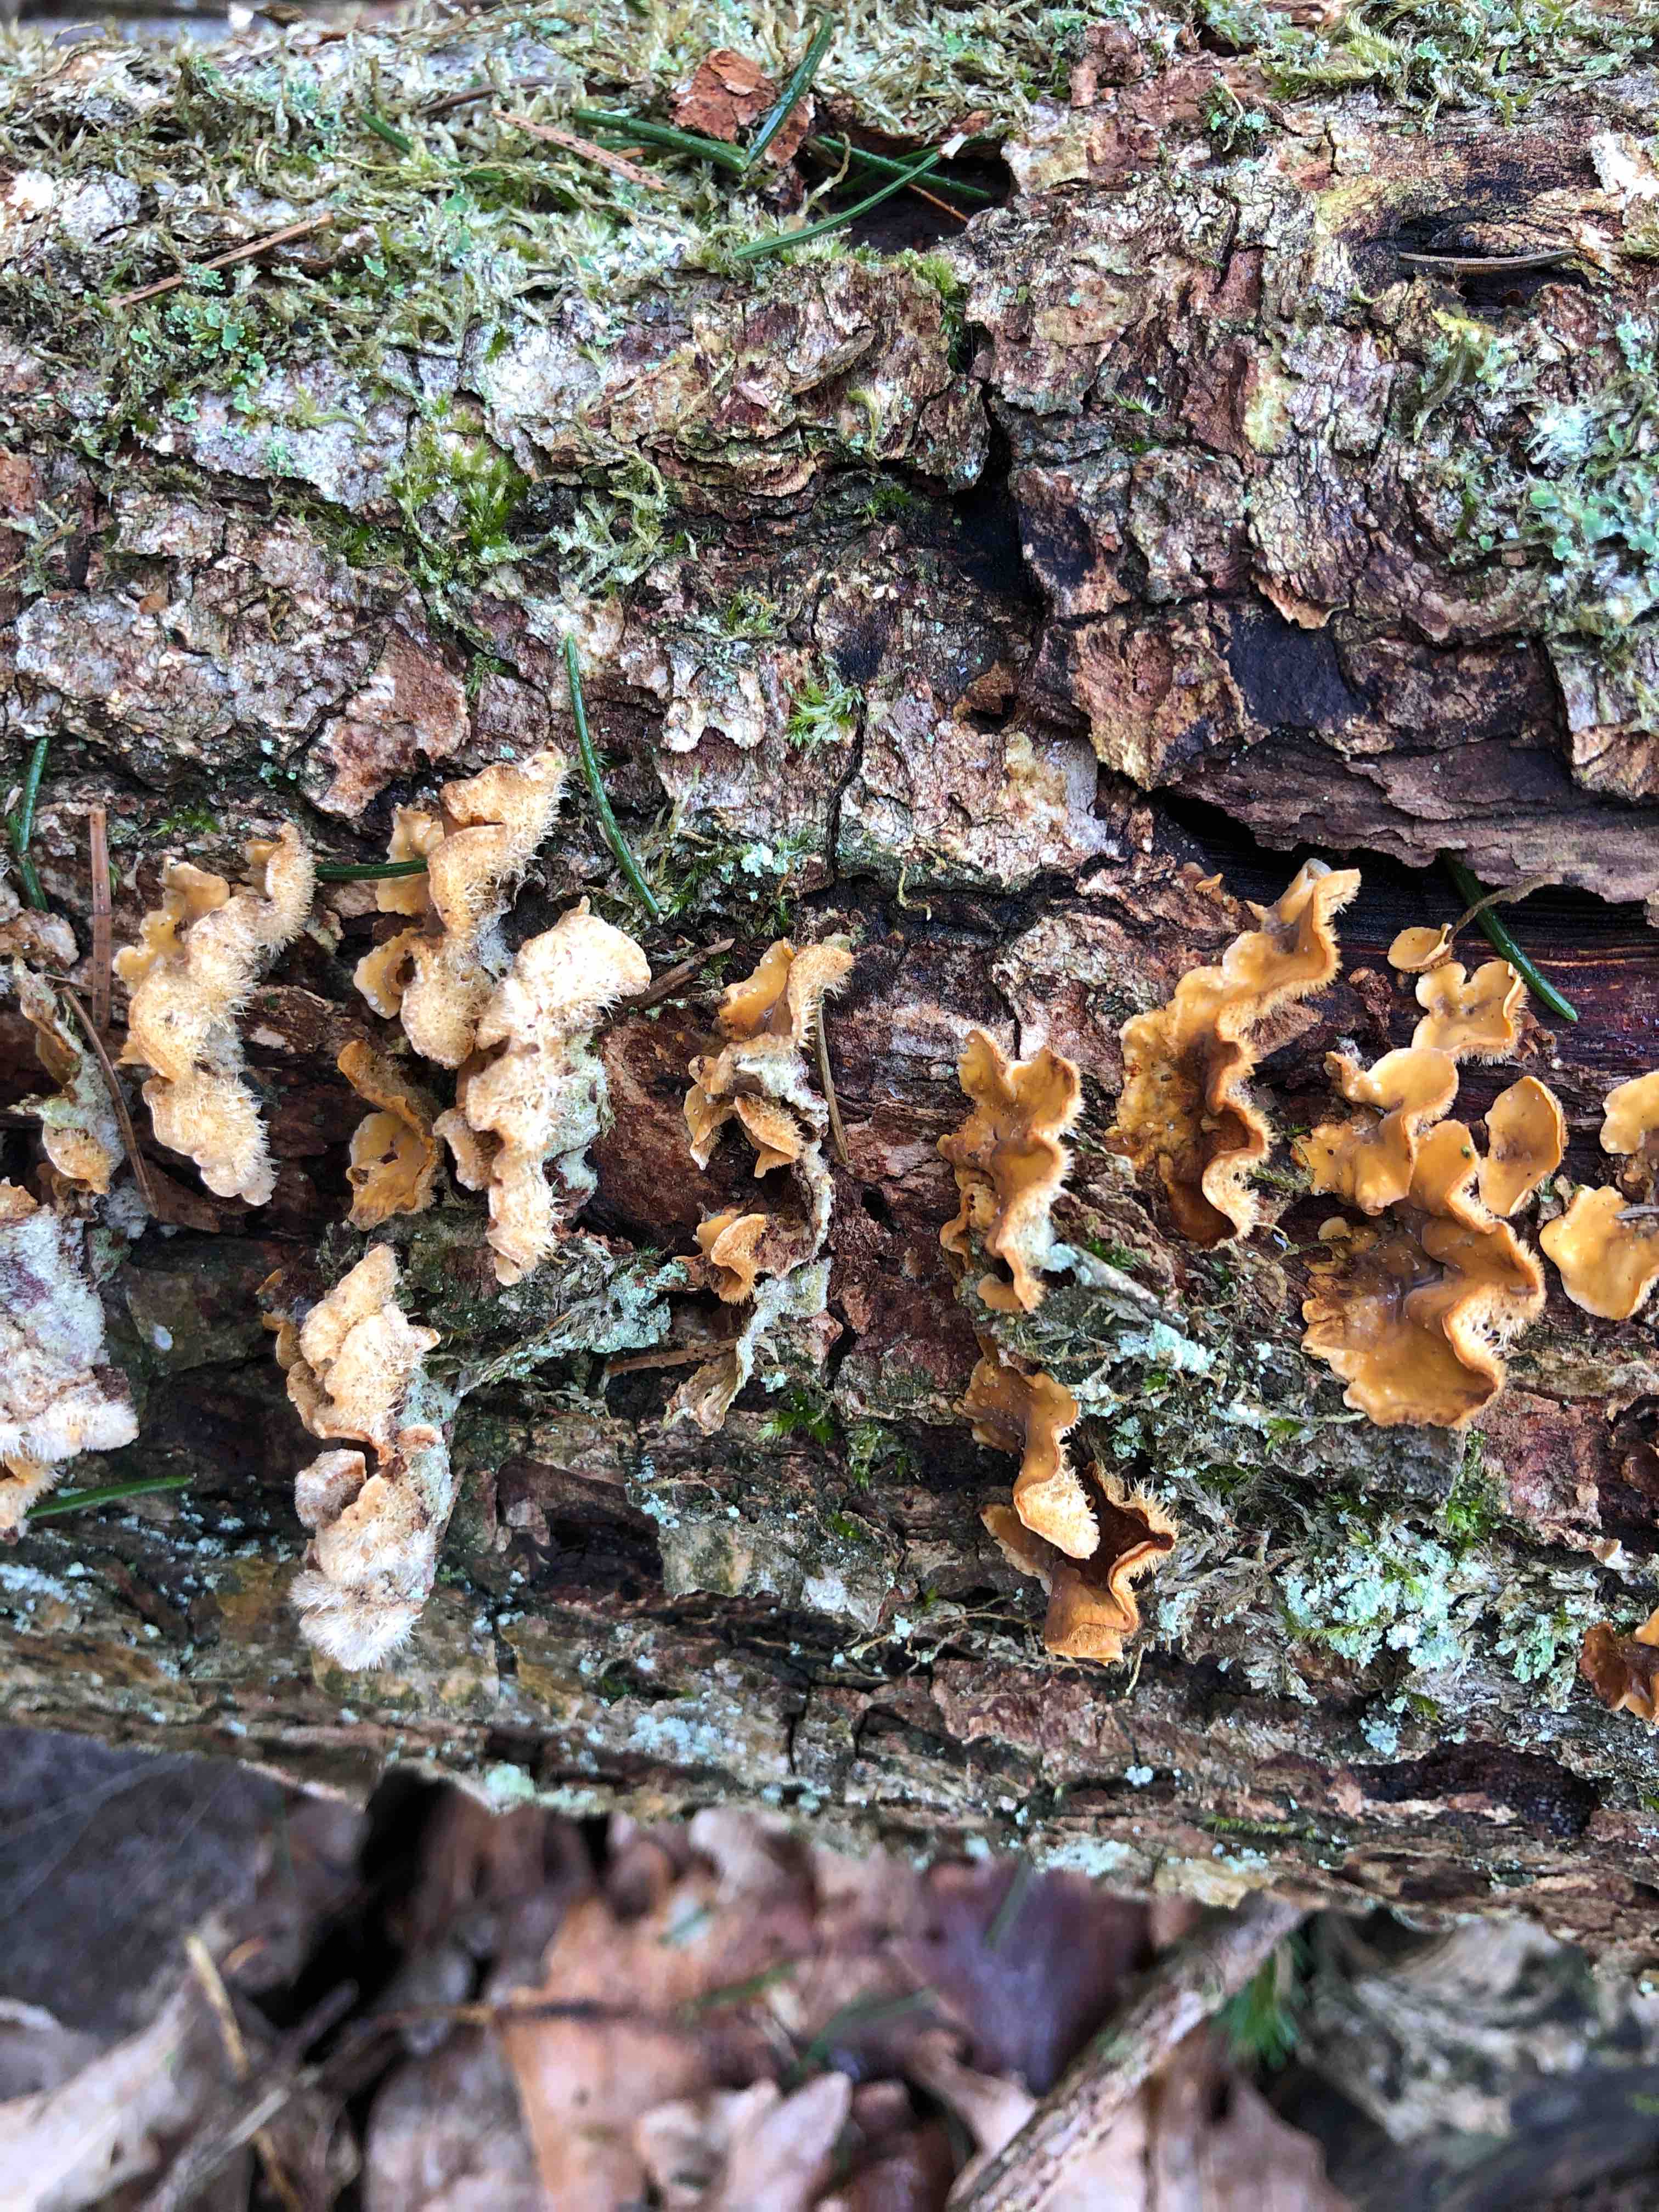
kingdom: Fungi
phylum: Basidiomycota
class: Agaricomycetes
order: Russulales
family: Stereaceae
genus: Stereum
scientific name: Stereum hirsutum
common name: håret lædersvamp
